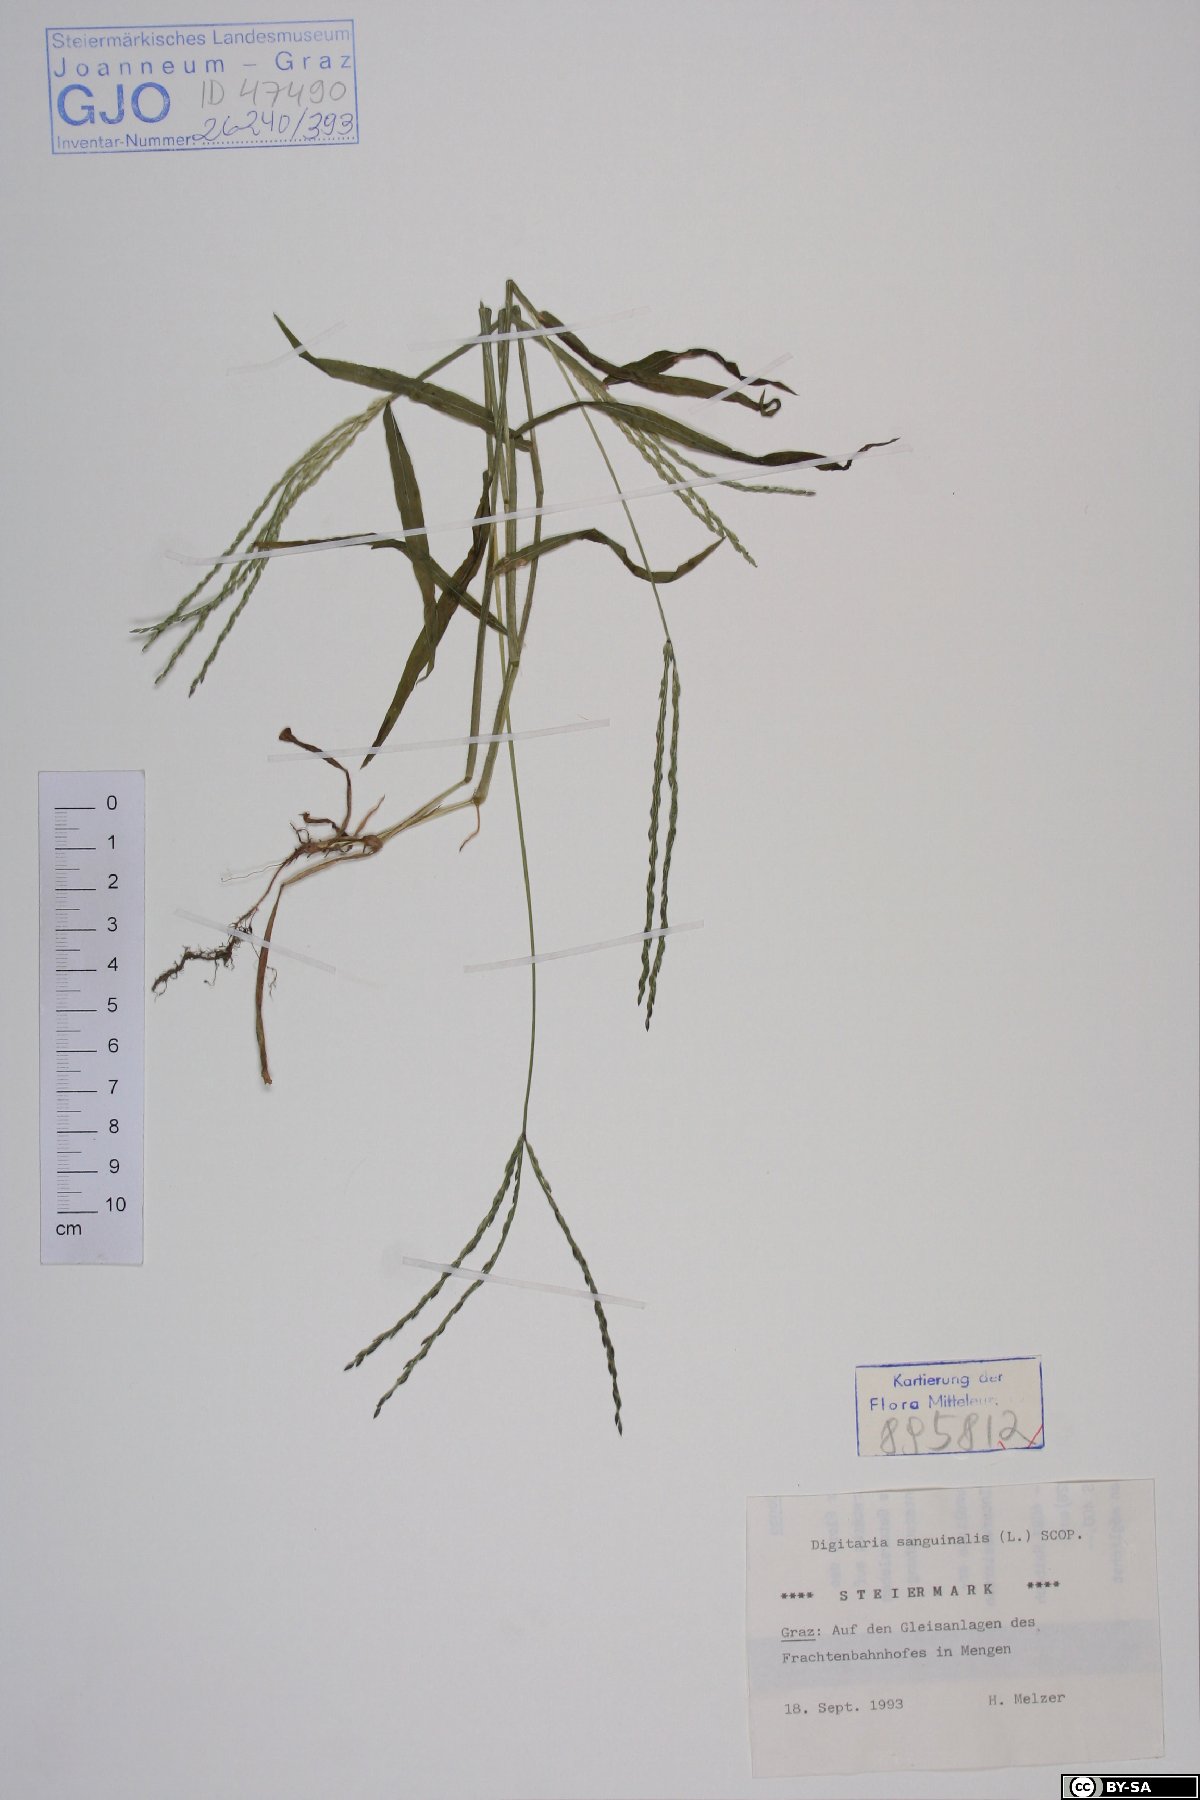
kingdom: Plantae
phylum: Tracheophyta
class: Liliopsida
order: Poales
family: Poaceae
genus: Digitaria
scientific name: Digitaria sanguinalis
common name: Hairy crabgrass
